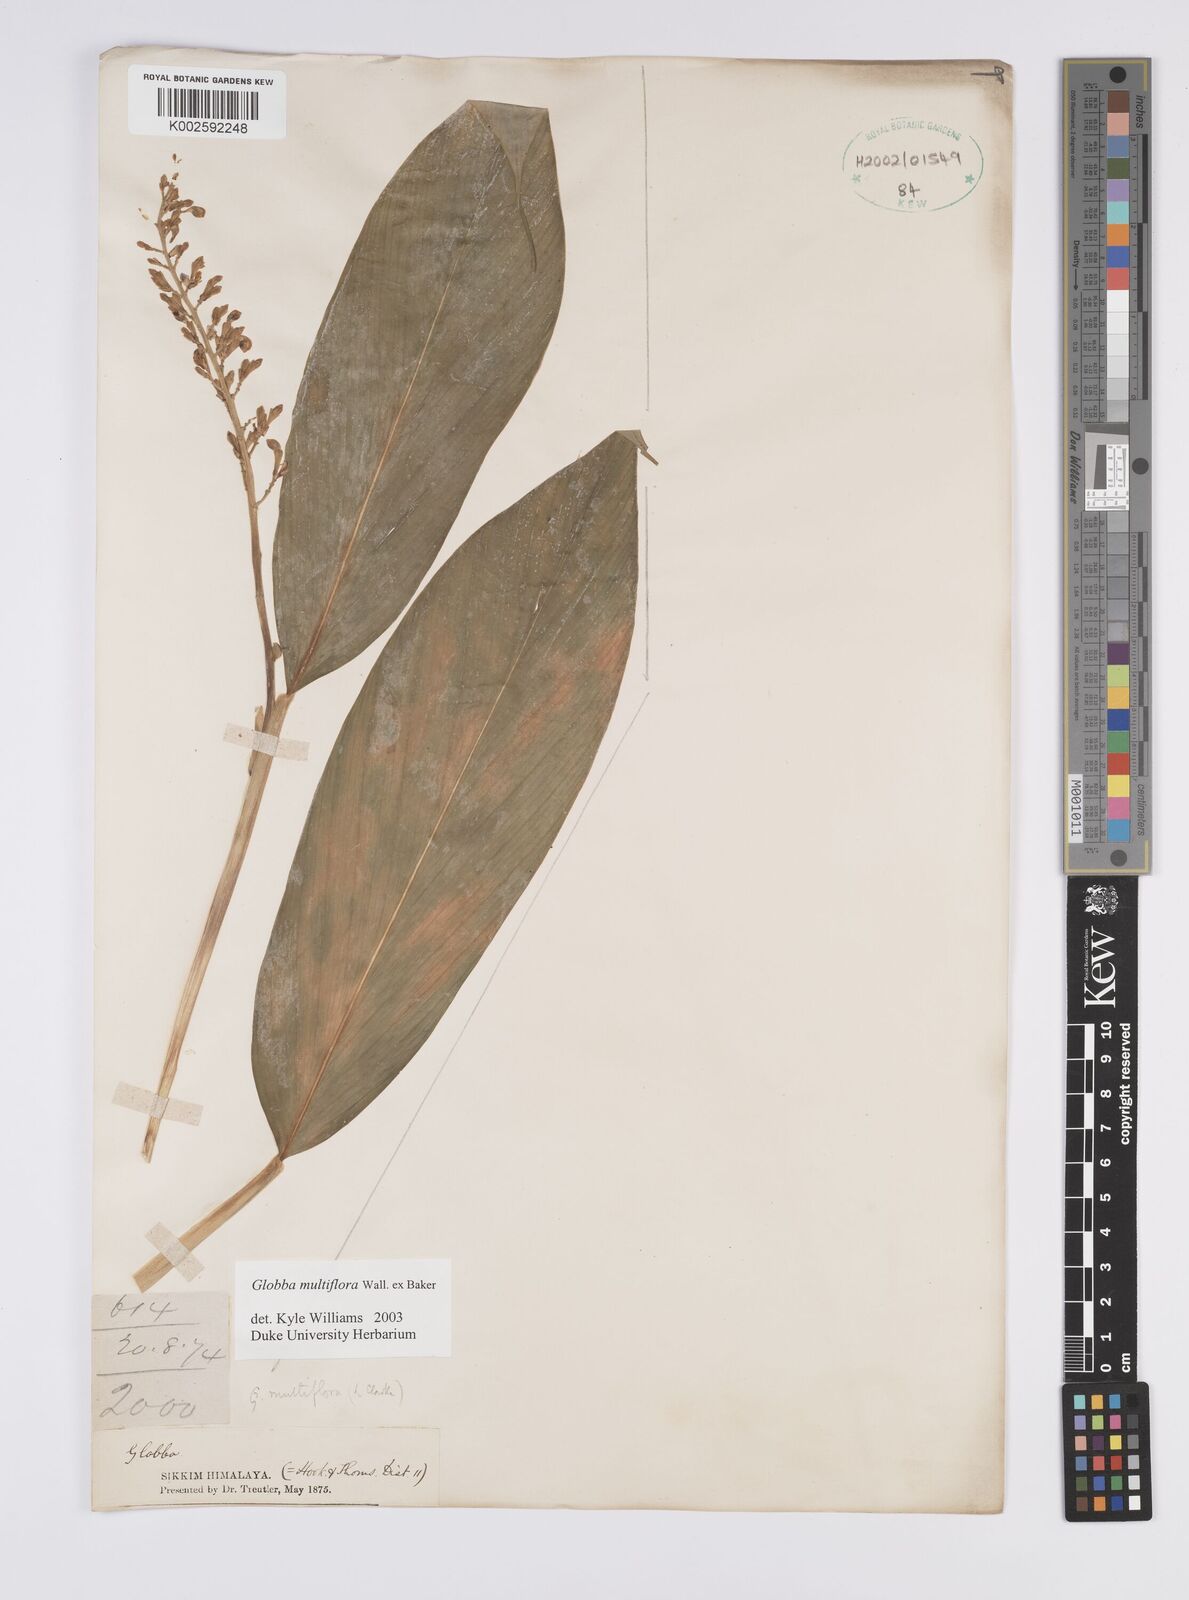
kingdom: Plantae
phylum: Tracheophyta
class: Liliopsida
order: Zingiberales
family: Zingiberaceae
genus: Globba
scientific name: Globba multiflora
